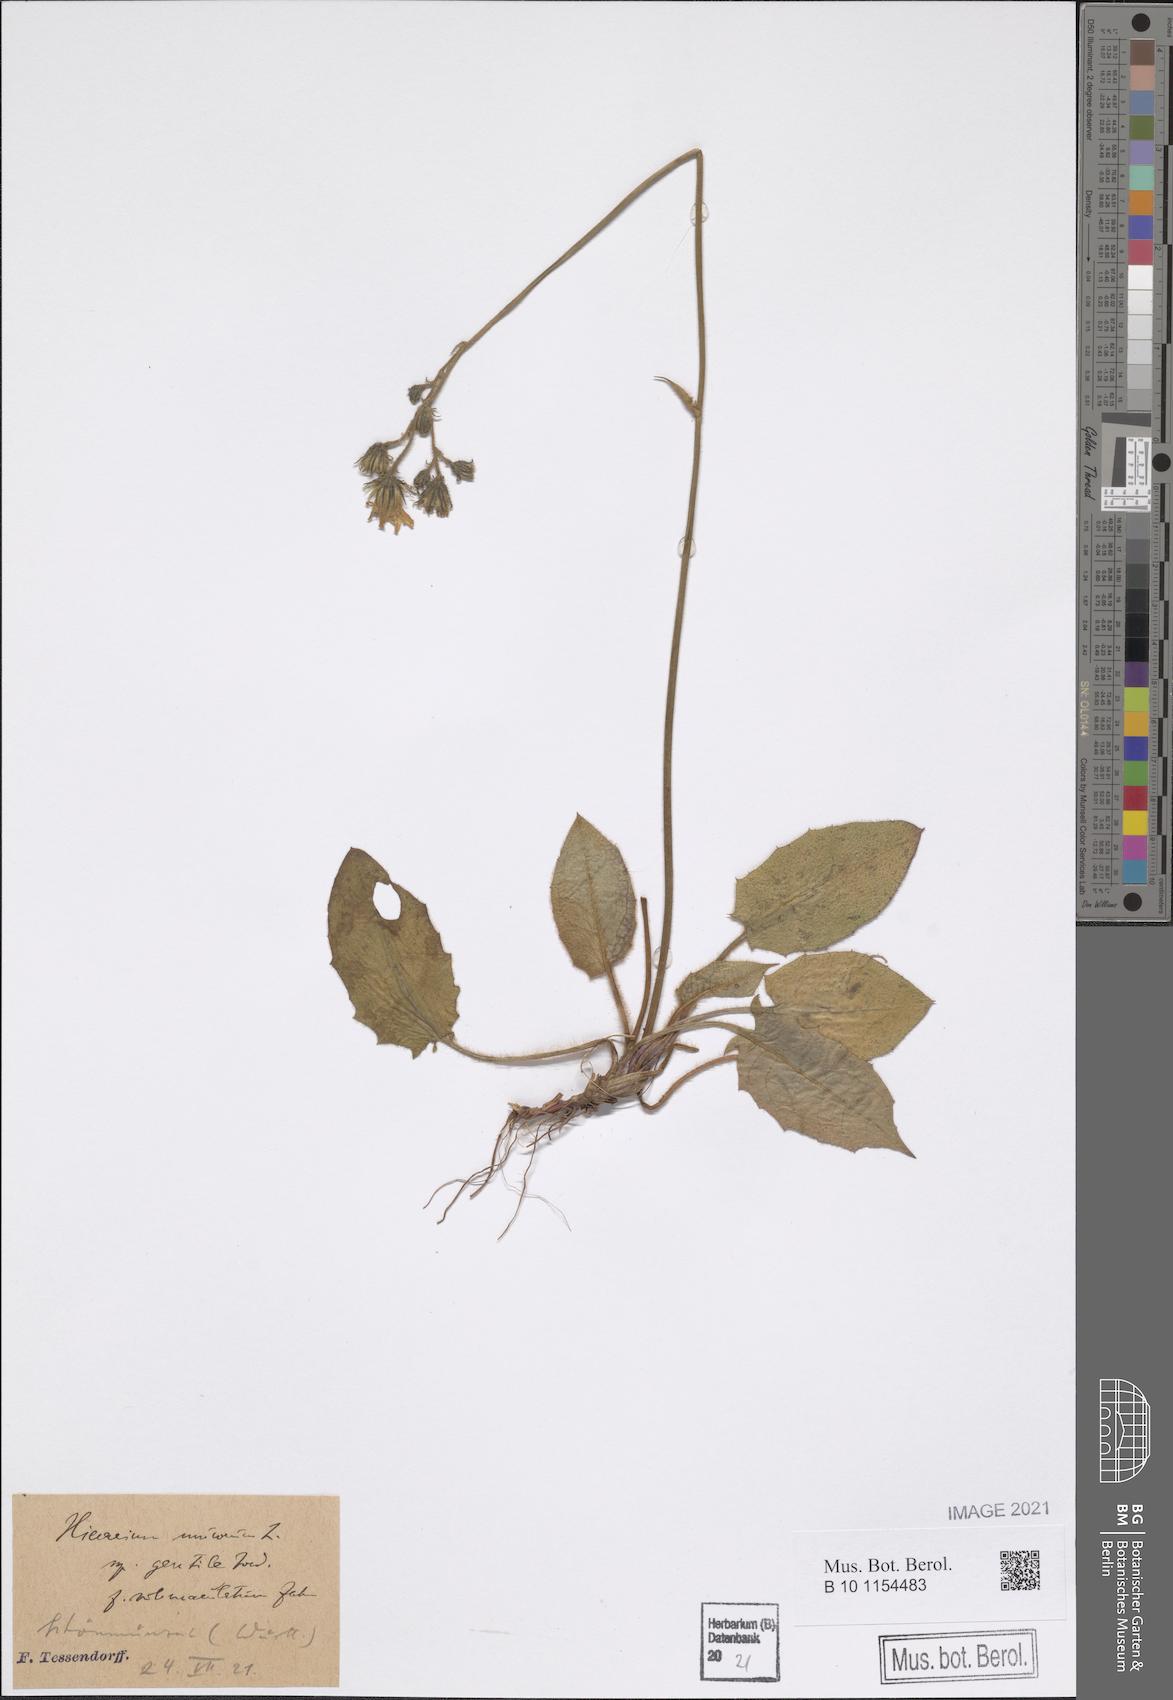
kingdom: Plantae
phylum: Tracheophyta
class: Magnoliopsida
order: Asterales
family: Asteraceae
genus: Hieracium
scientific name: Hieracium murorum
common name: Wall hawkweed
